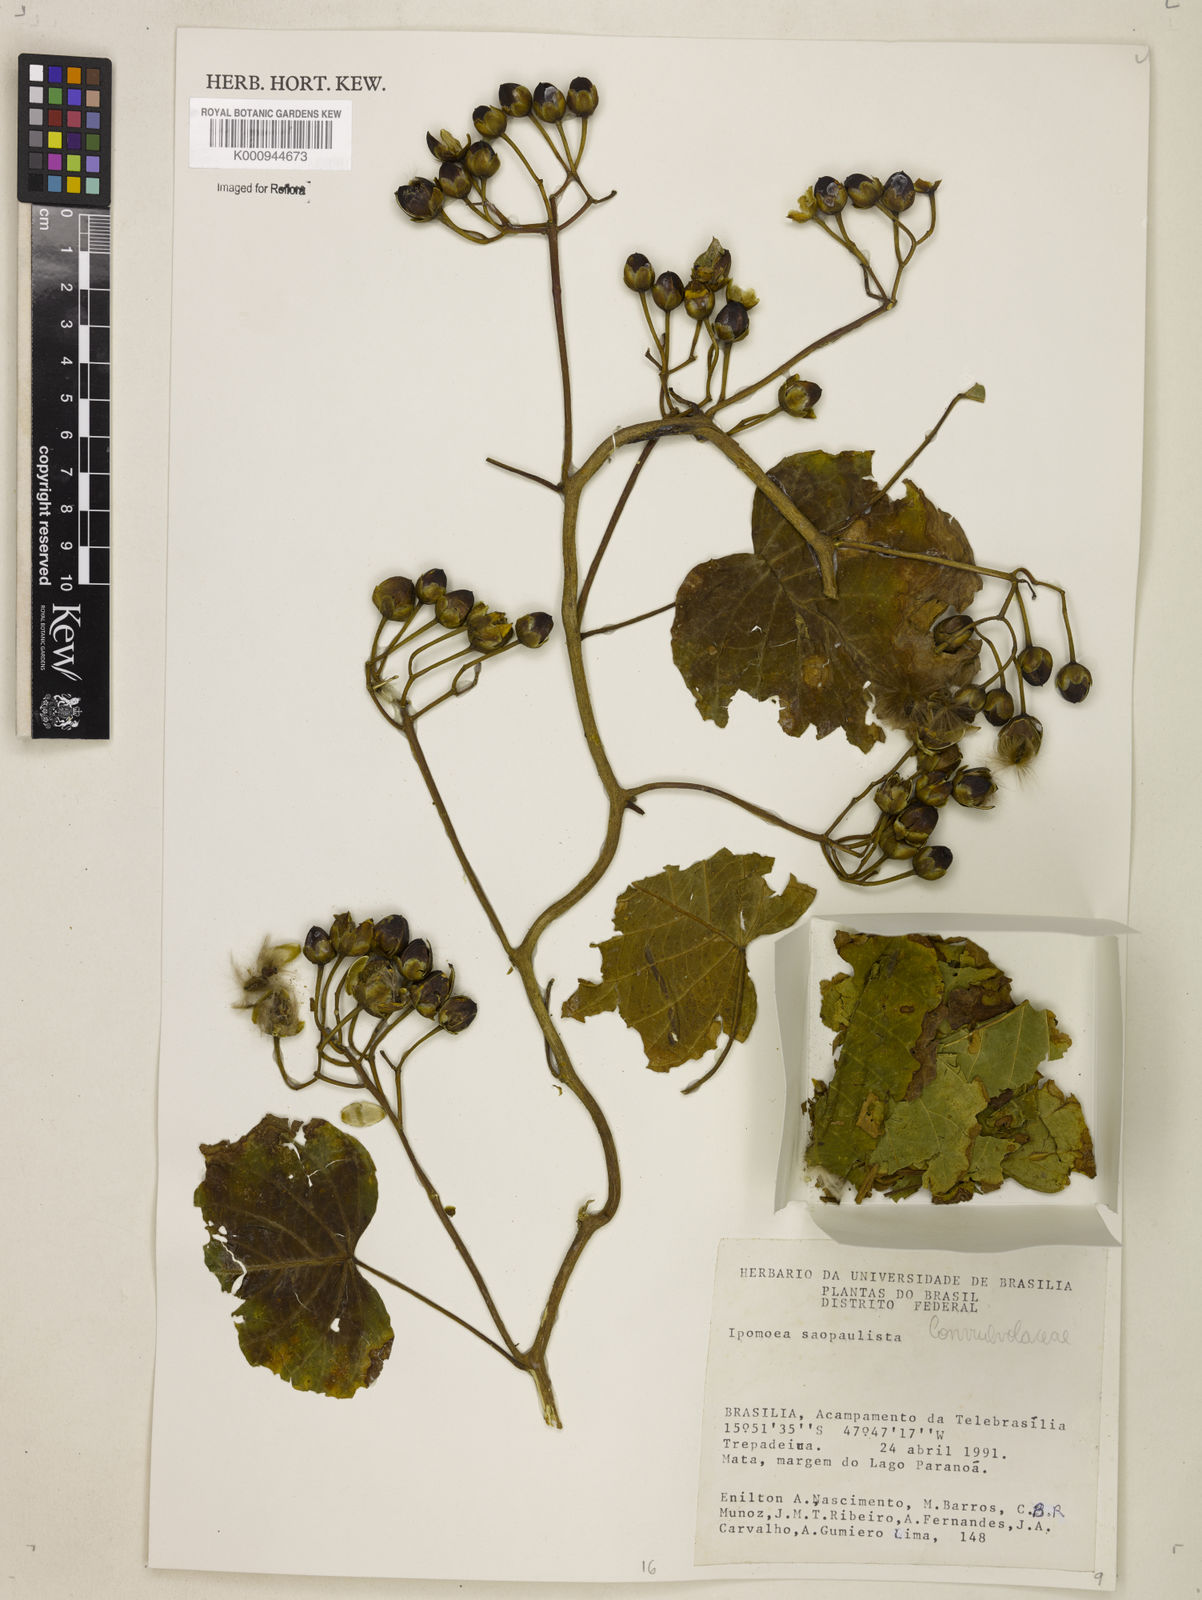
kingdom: Plantae
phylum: Tracheophyta
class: Magnoliopsida
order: Solanales
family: Convolvulaceae
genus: Ipomoea
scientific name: Ipomoea
